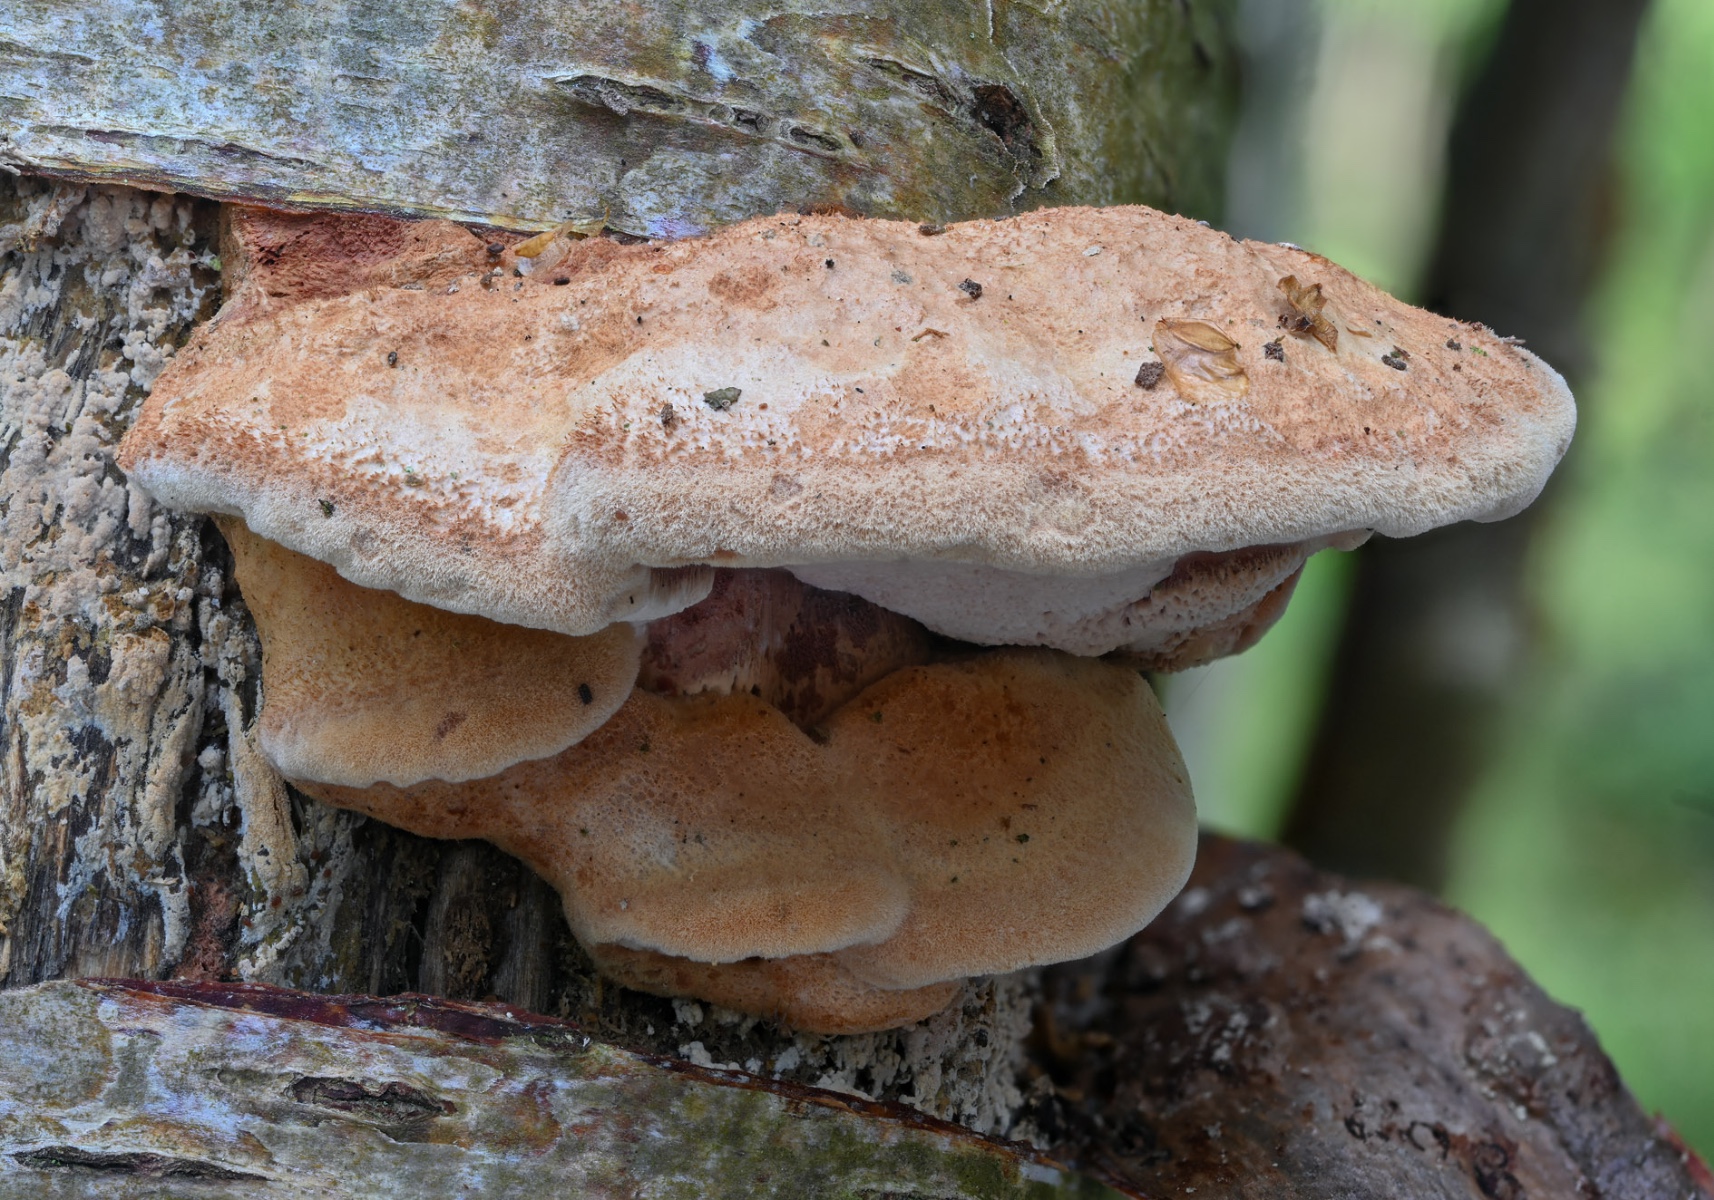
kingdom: Fungi
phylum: Basidiomycota
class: Agaricomycetes
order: Polyporales
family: Phanerochaetaceae
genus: Hapalopilus
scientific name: Hapalopilus rutilans
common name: rødlig okkerporesvamp
